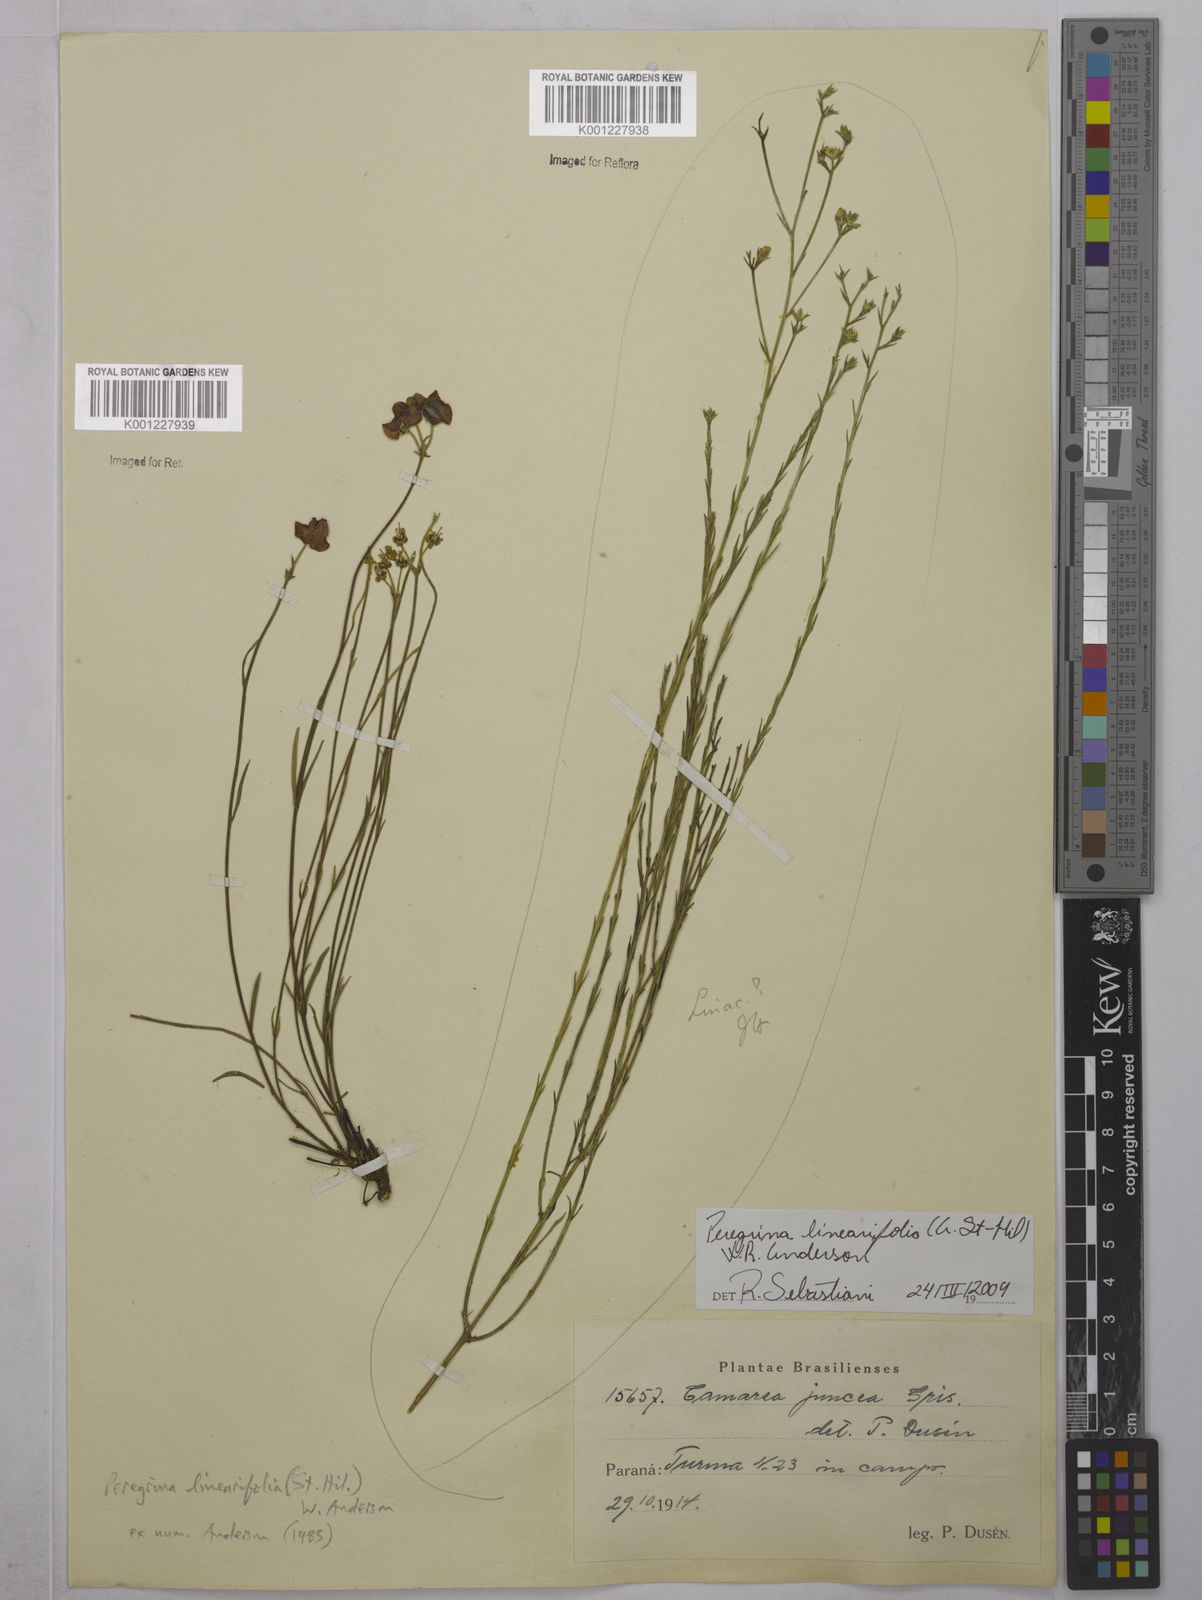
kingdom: Plantae
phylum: Tracheophyta
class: Magnoliopsida
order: Malpighiales
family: Malpighiaceae
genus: Janusia
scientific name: Janusia
